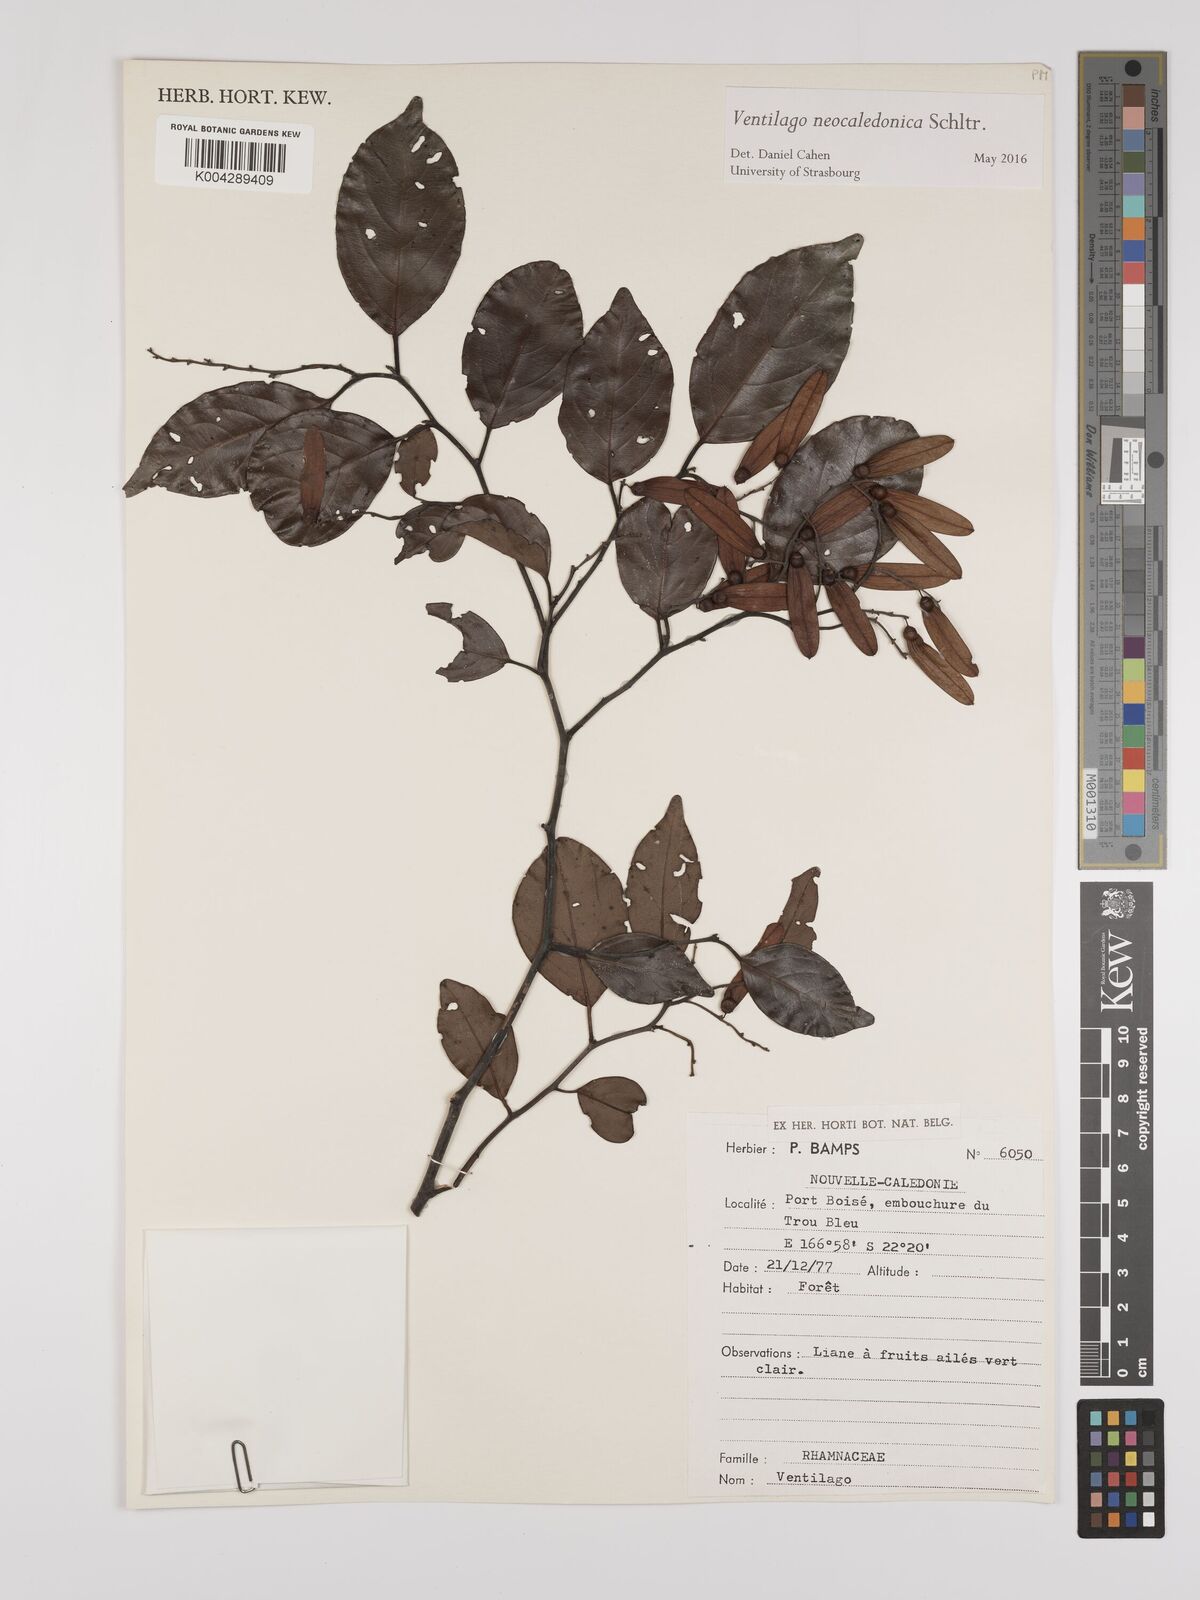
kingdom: Plantae
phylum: Tracheophyta
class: Magnoliopsida
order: Rosales
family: Rhamnaceae
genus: Ventilago
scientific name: Ventilago neocaledonica
